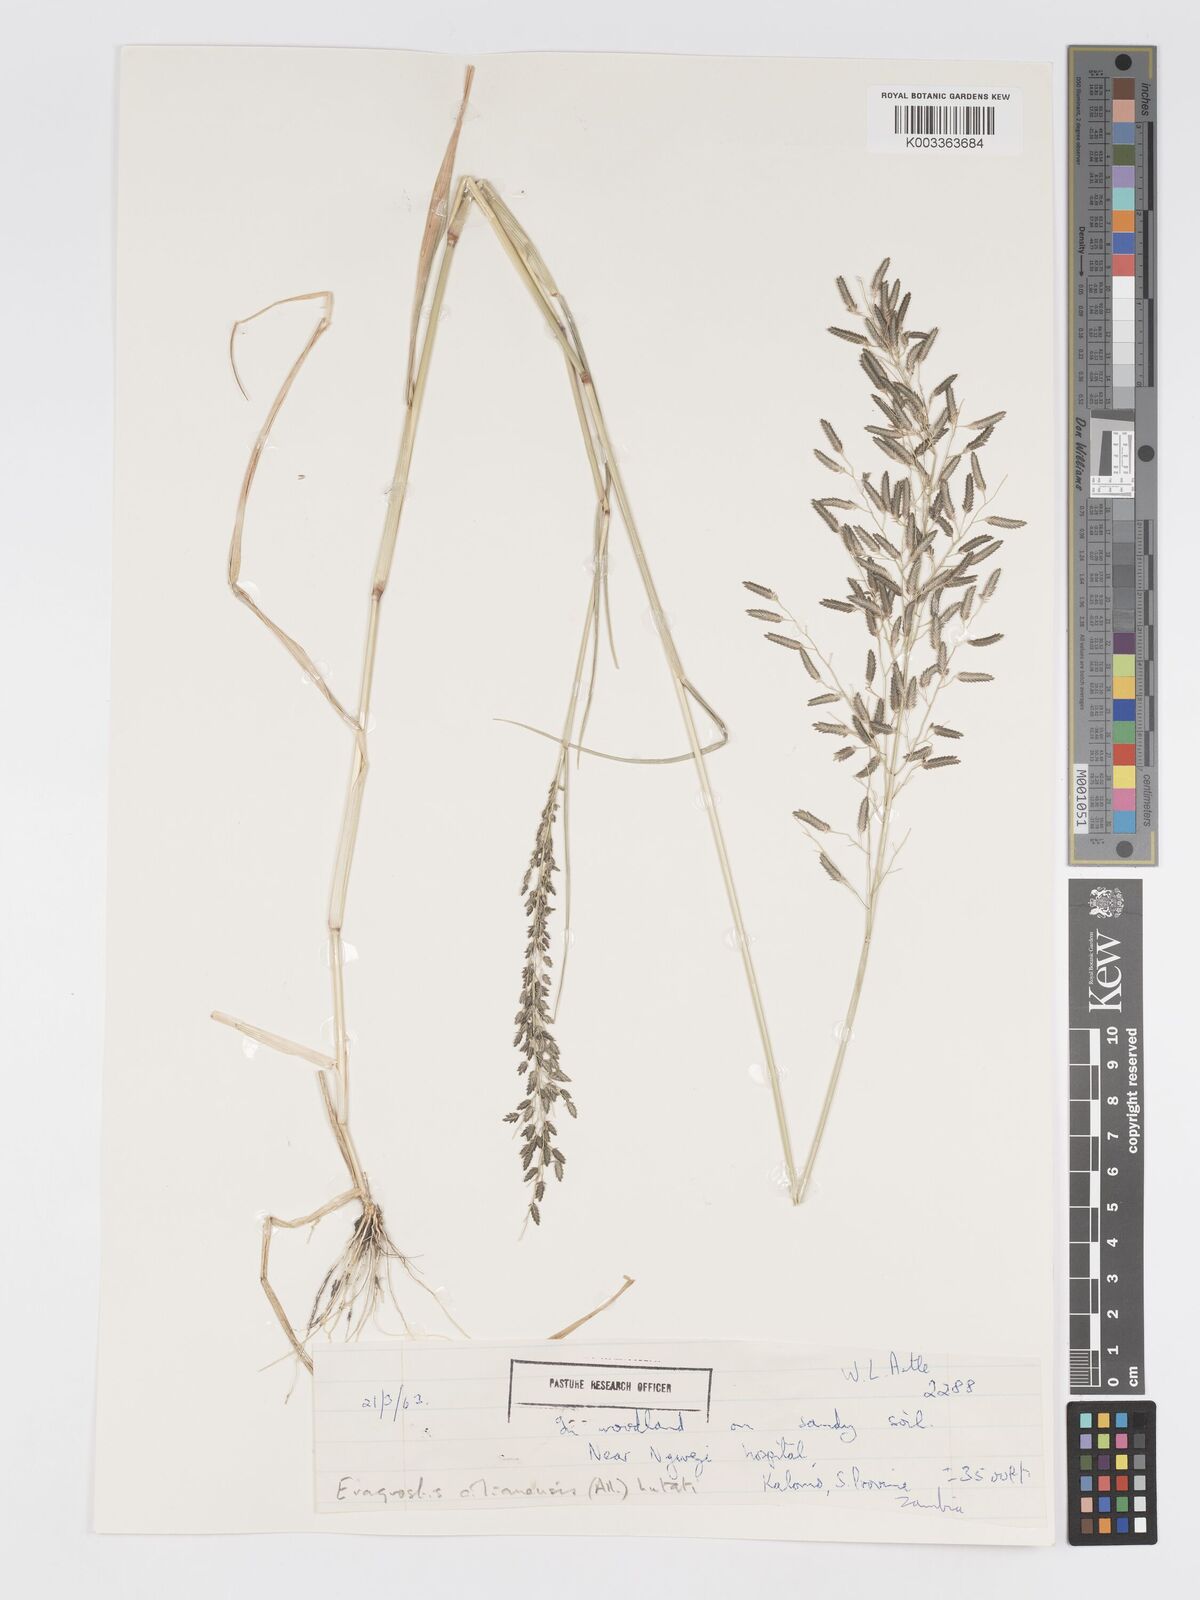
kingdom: Plantae
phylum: Tracheophyta
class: Liliopsida
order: Poales
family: Poaceae
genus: Eragrostis
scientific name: Eragrostis cilianensis
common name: Stinkgrass
